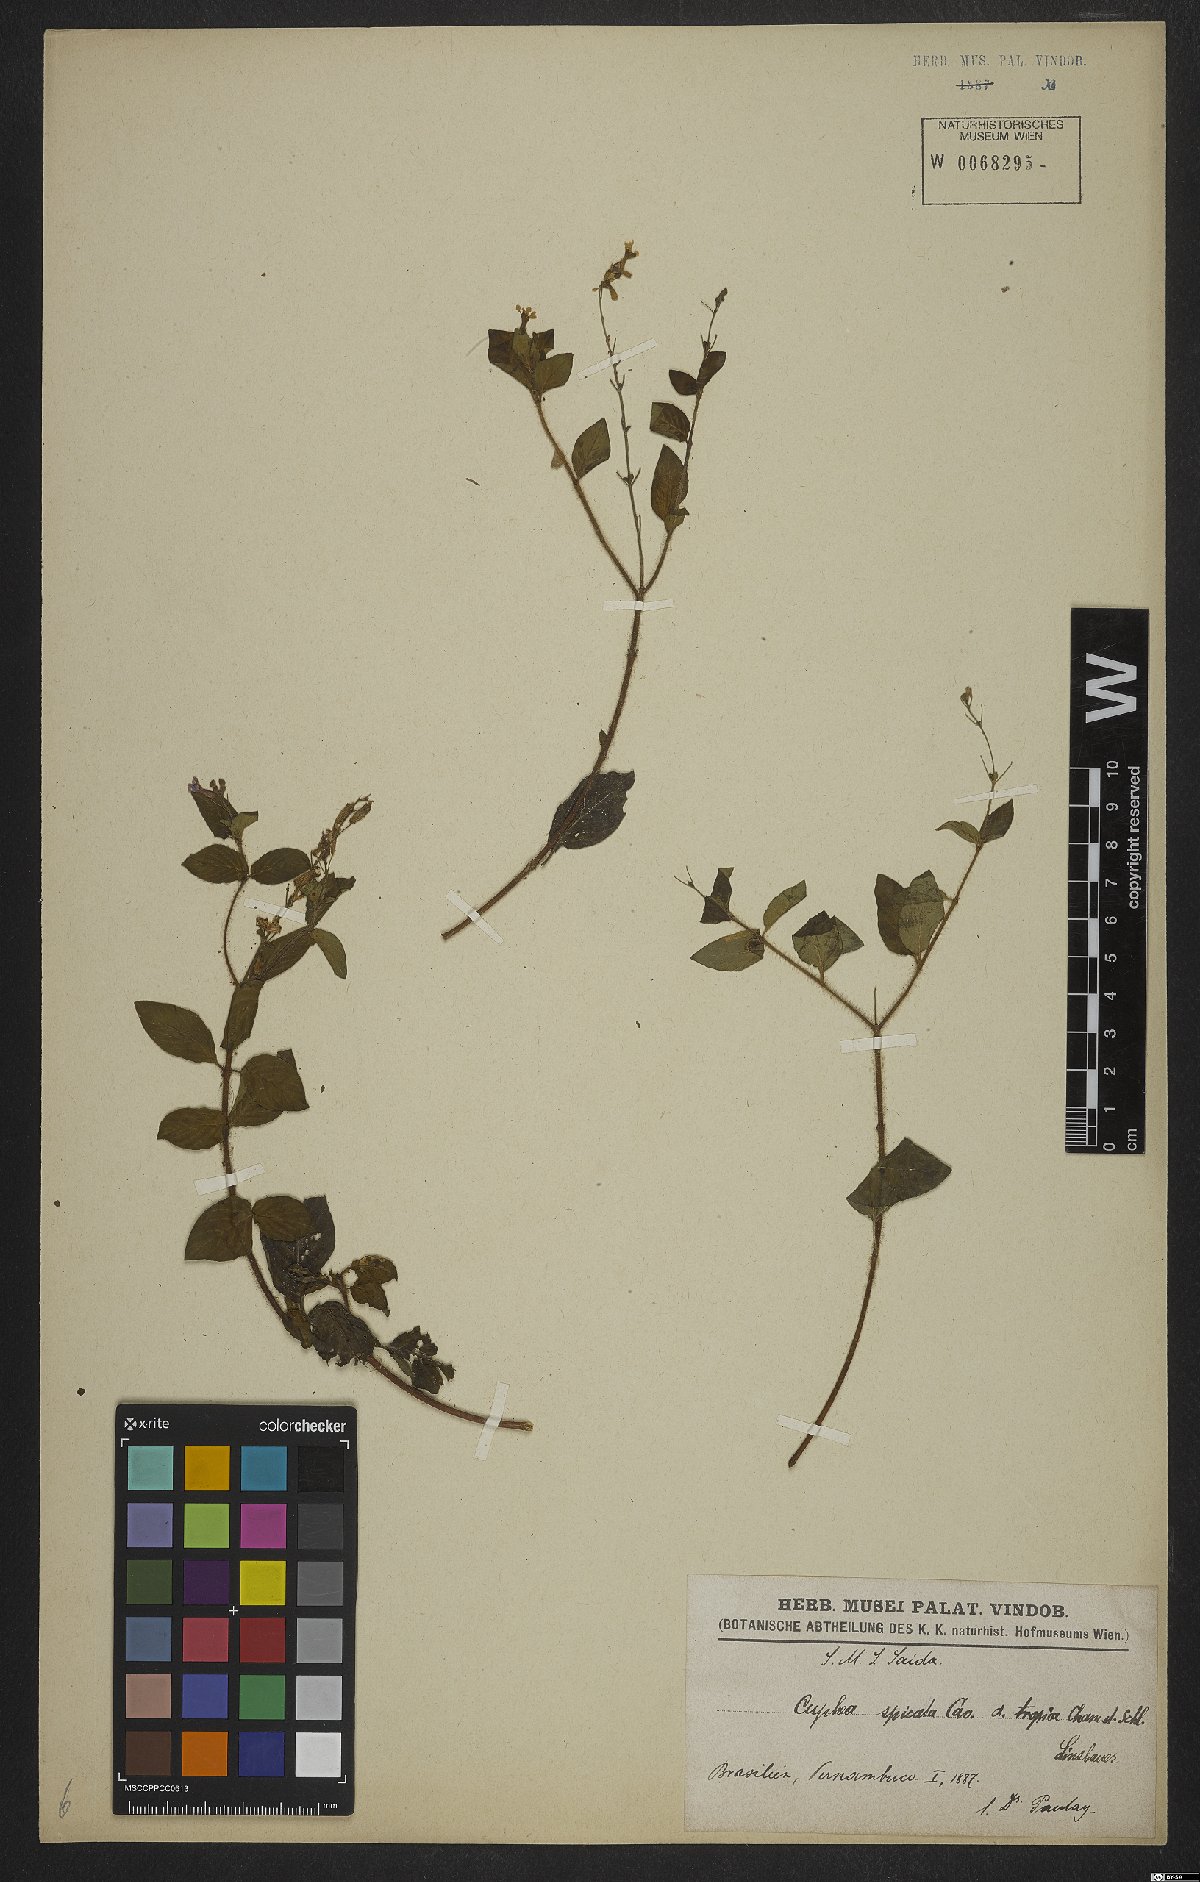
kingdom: Plantae
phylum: Tracheophyta
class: Magnoliopsida
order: Myrtales
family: Lythraceae
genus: Cuphea
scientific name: Cuphea racemosa
